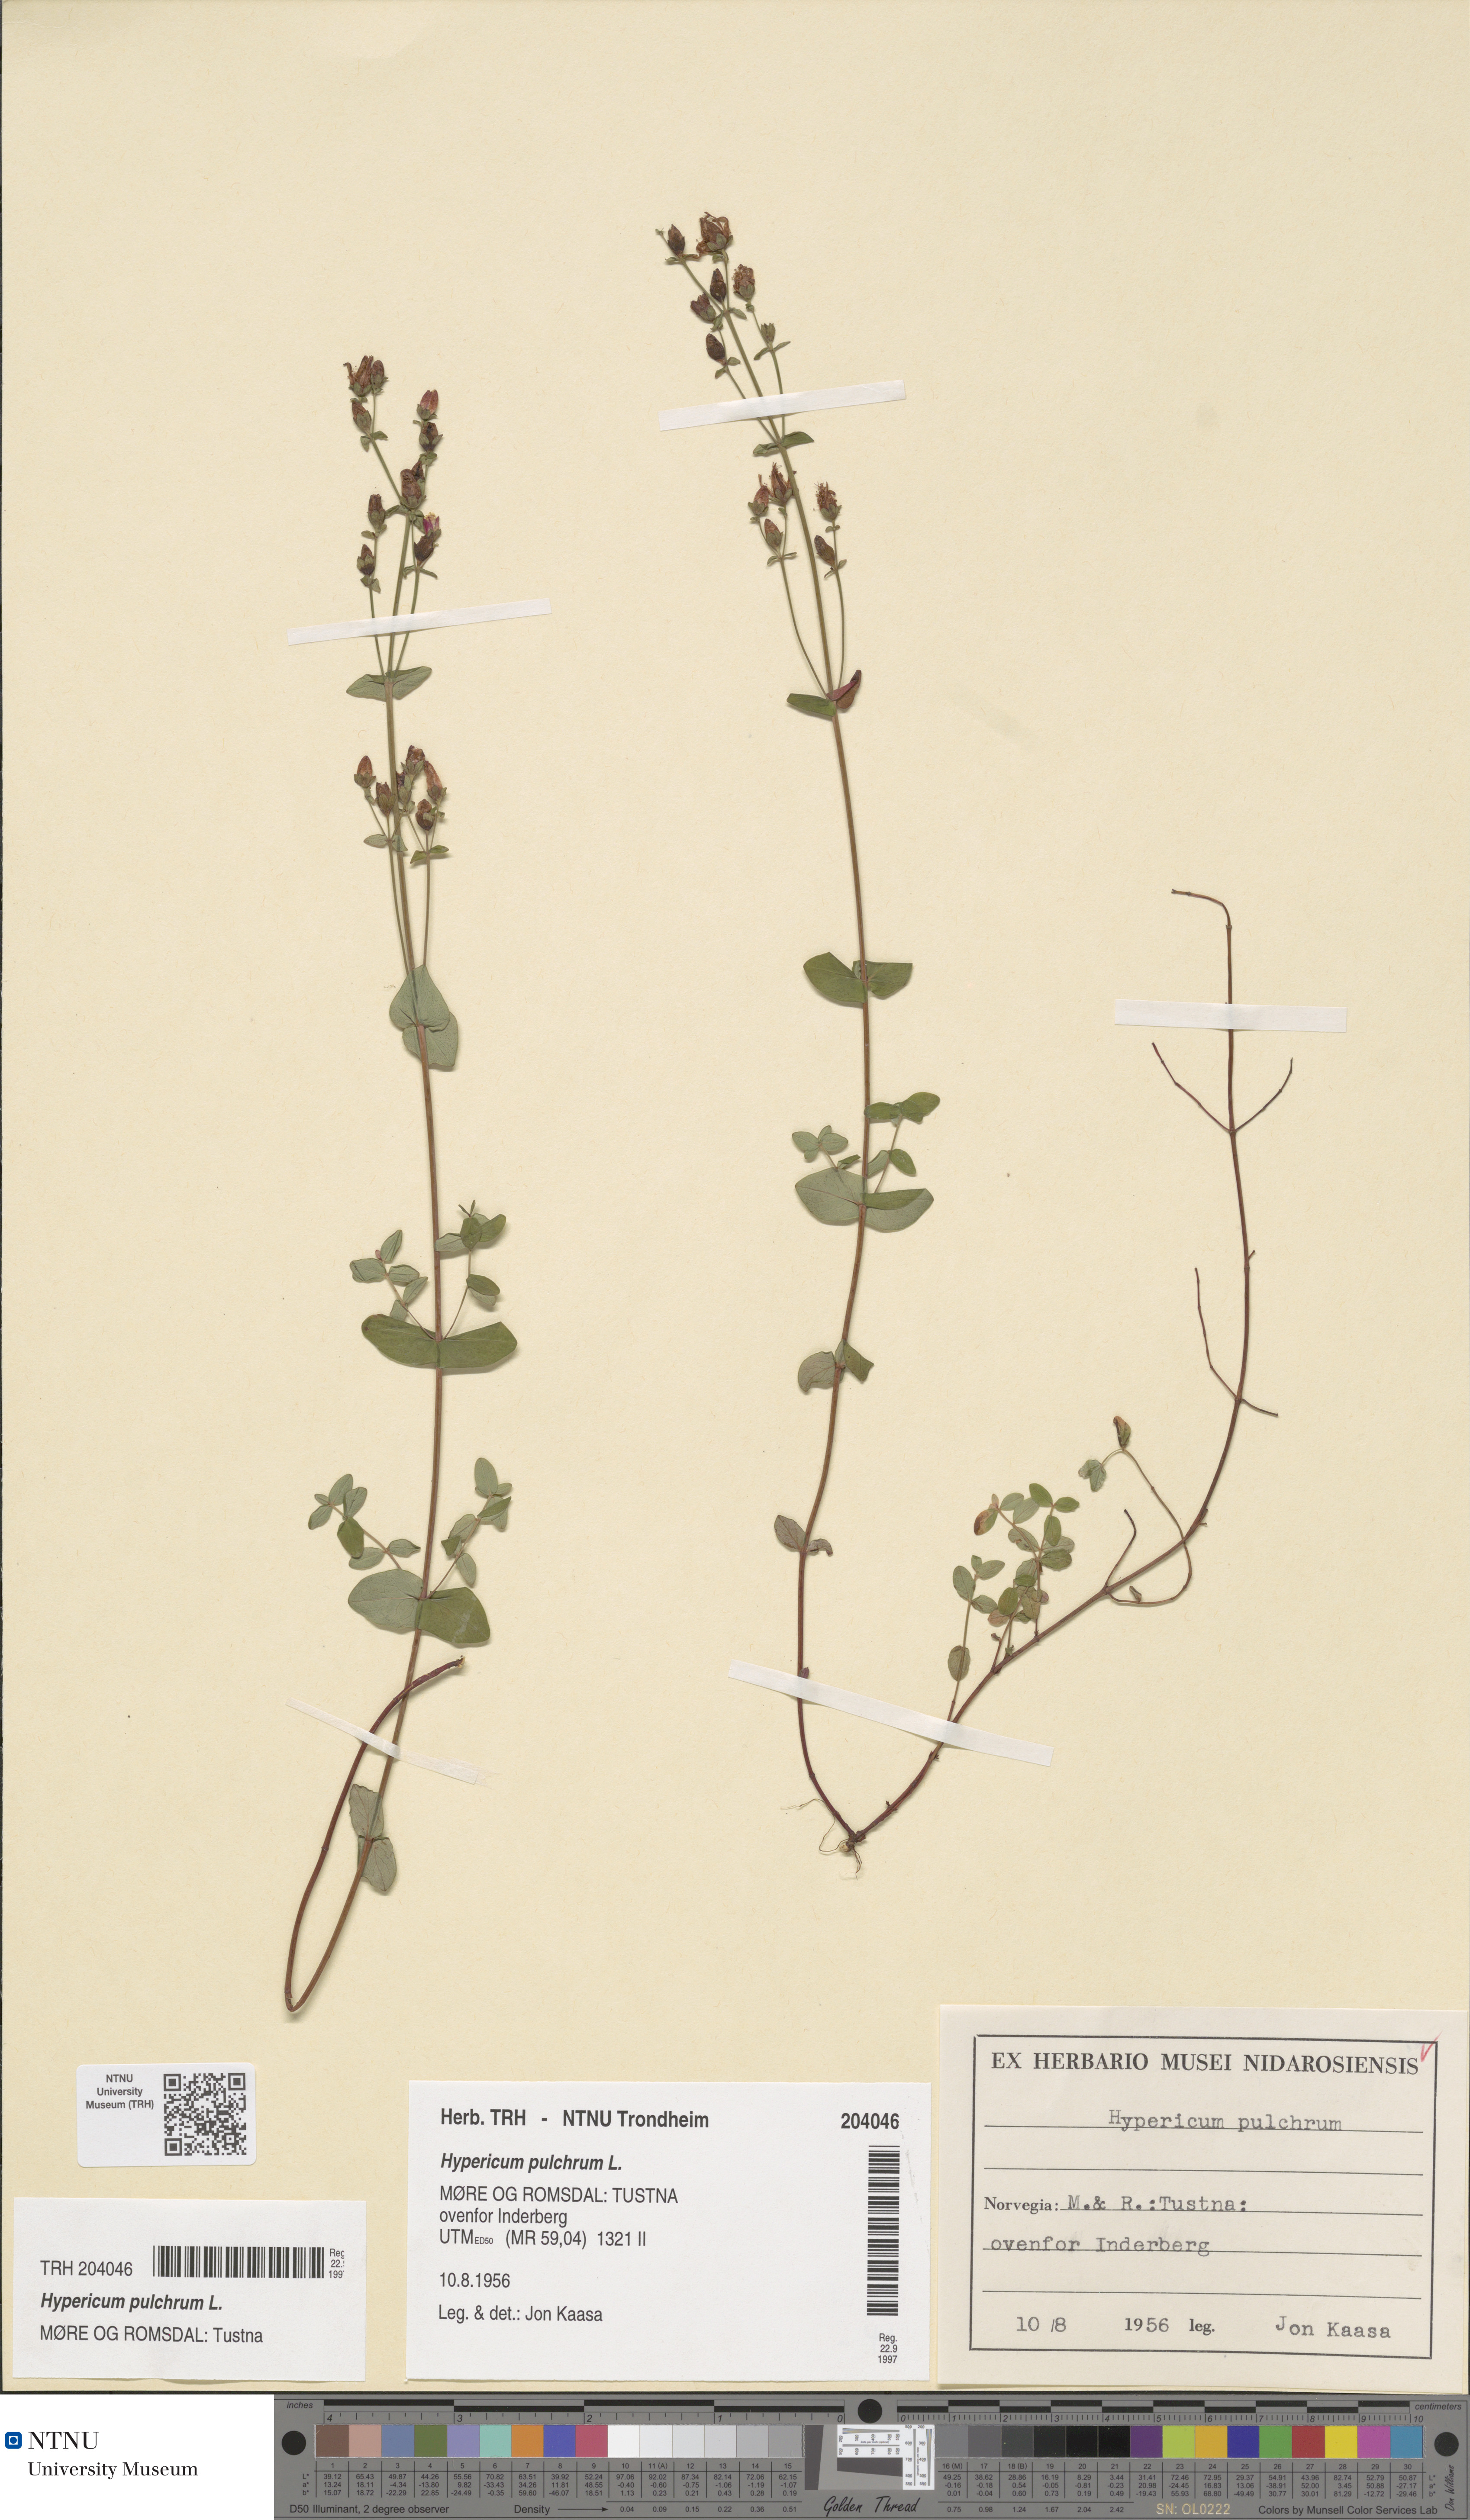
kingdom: Plantae
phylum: Tracheophyta
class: Magnoliopsida
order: Malpighiales
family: Hypericaceae
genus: Hypericum
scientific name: Hypericum pulchrum
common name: Slender st. john's-wort
